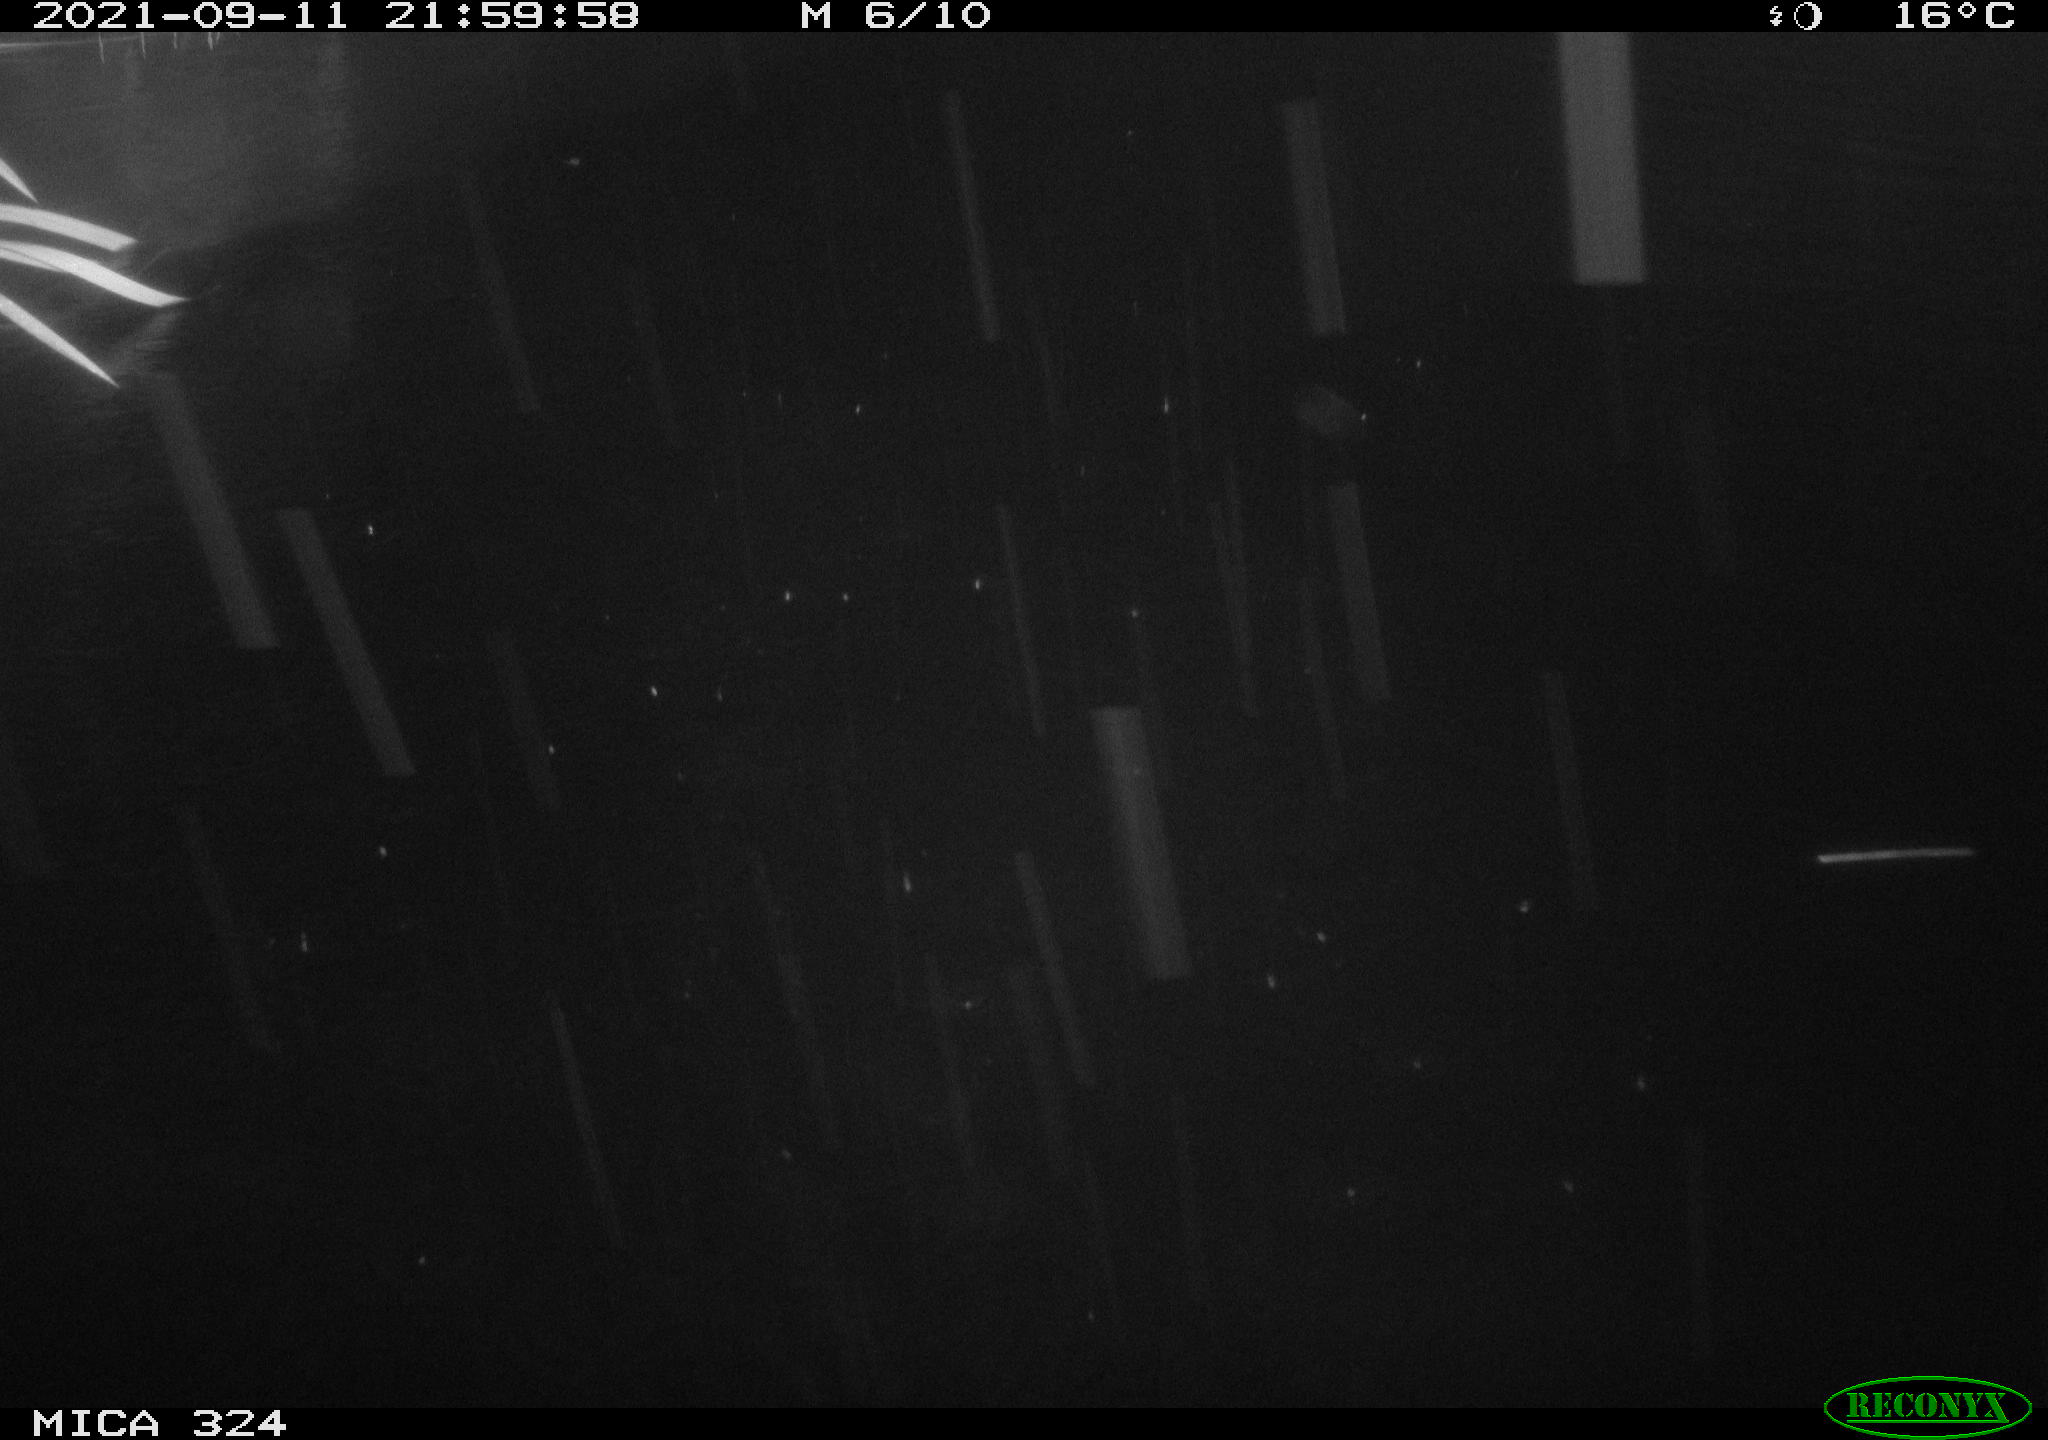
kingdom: Animalia
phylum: Chordata
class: Mammalia
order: Rodentia
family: Cricetidae
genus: Ondatra
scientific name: Ondatra zibethicus
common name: Muskrat
